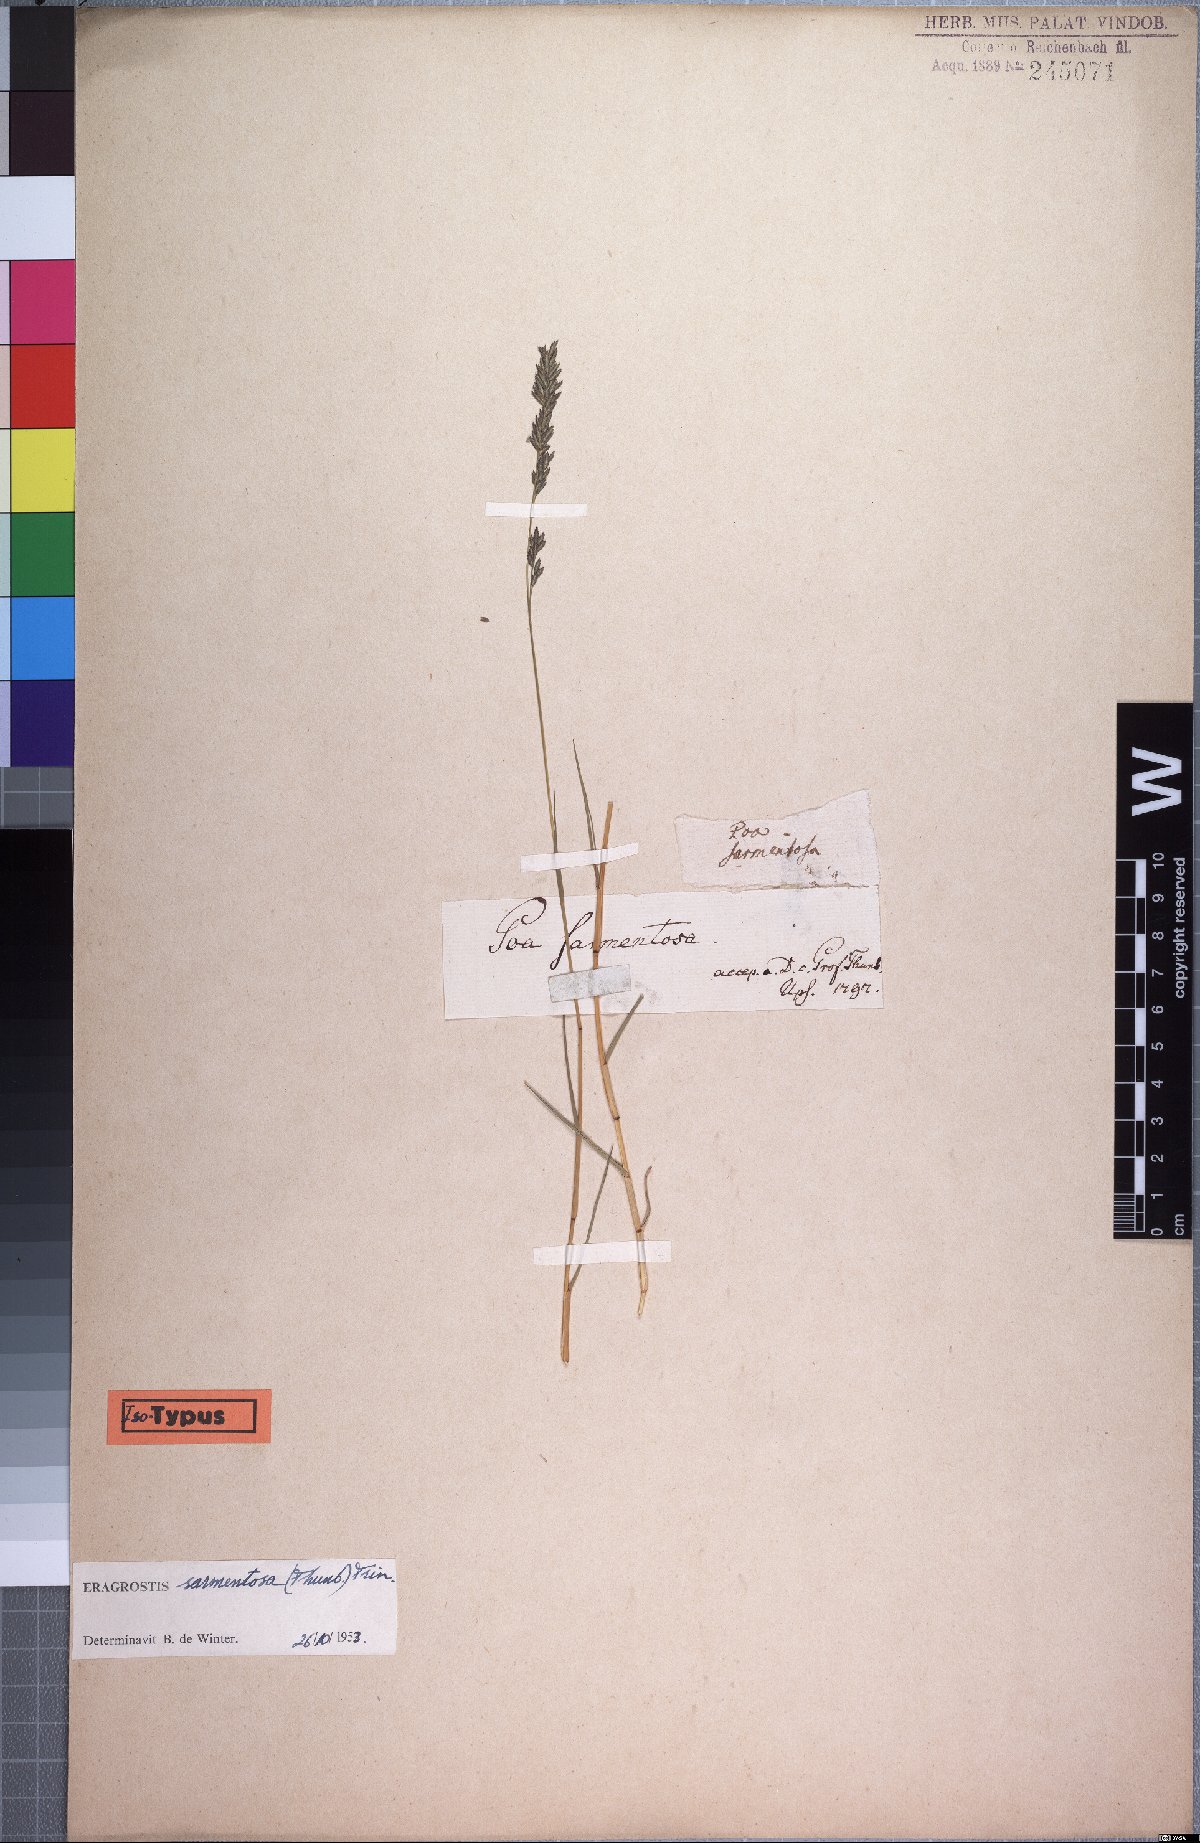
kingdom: Plantae
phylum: Tracheophyta
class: Liliopsida
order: Poales
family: Poaceae
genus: Eragrostis
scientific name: Eragrostis sarmentosa
